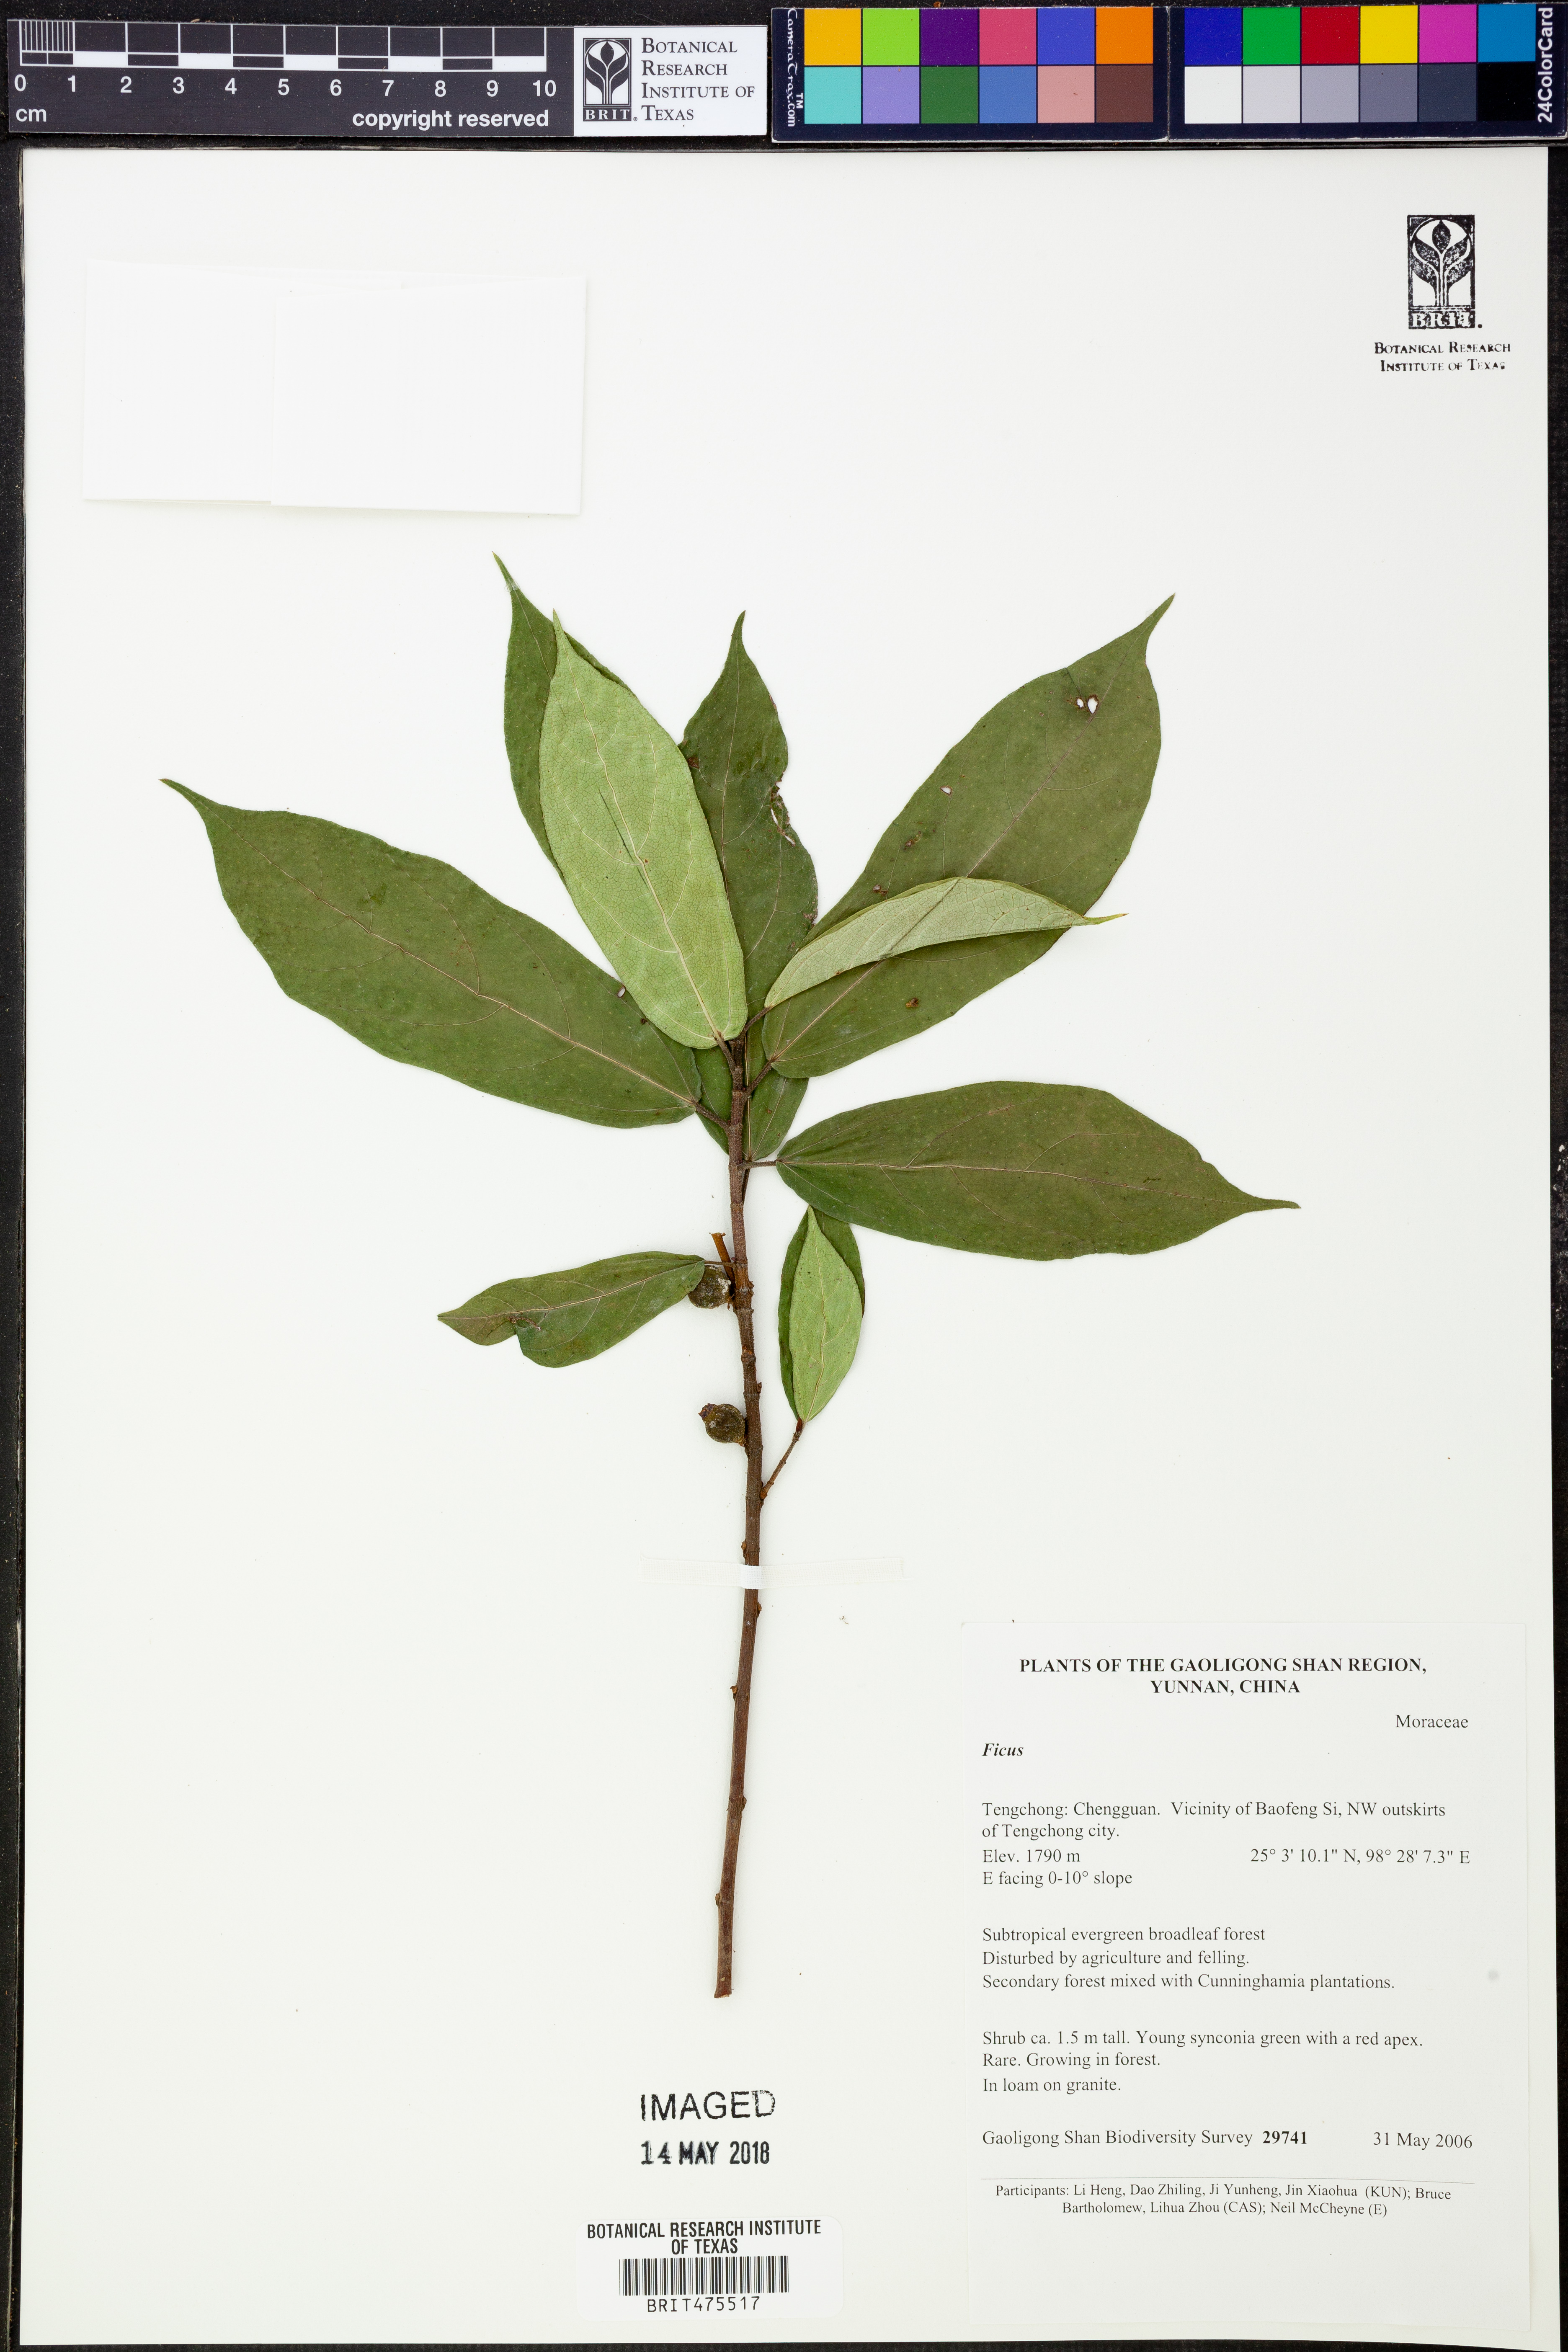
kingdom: Plantae
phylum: Tracheophyta
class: Magnoliopsida
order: Rosales
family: Moraceae
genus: Ficus
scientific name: Ficus
